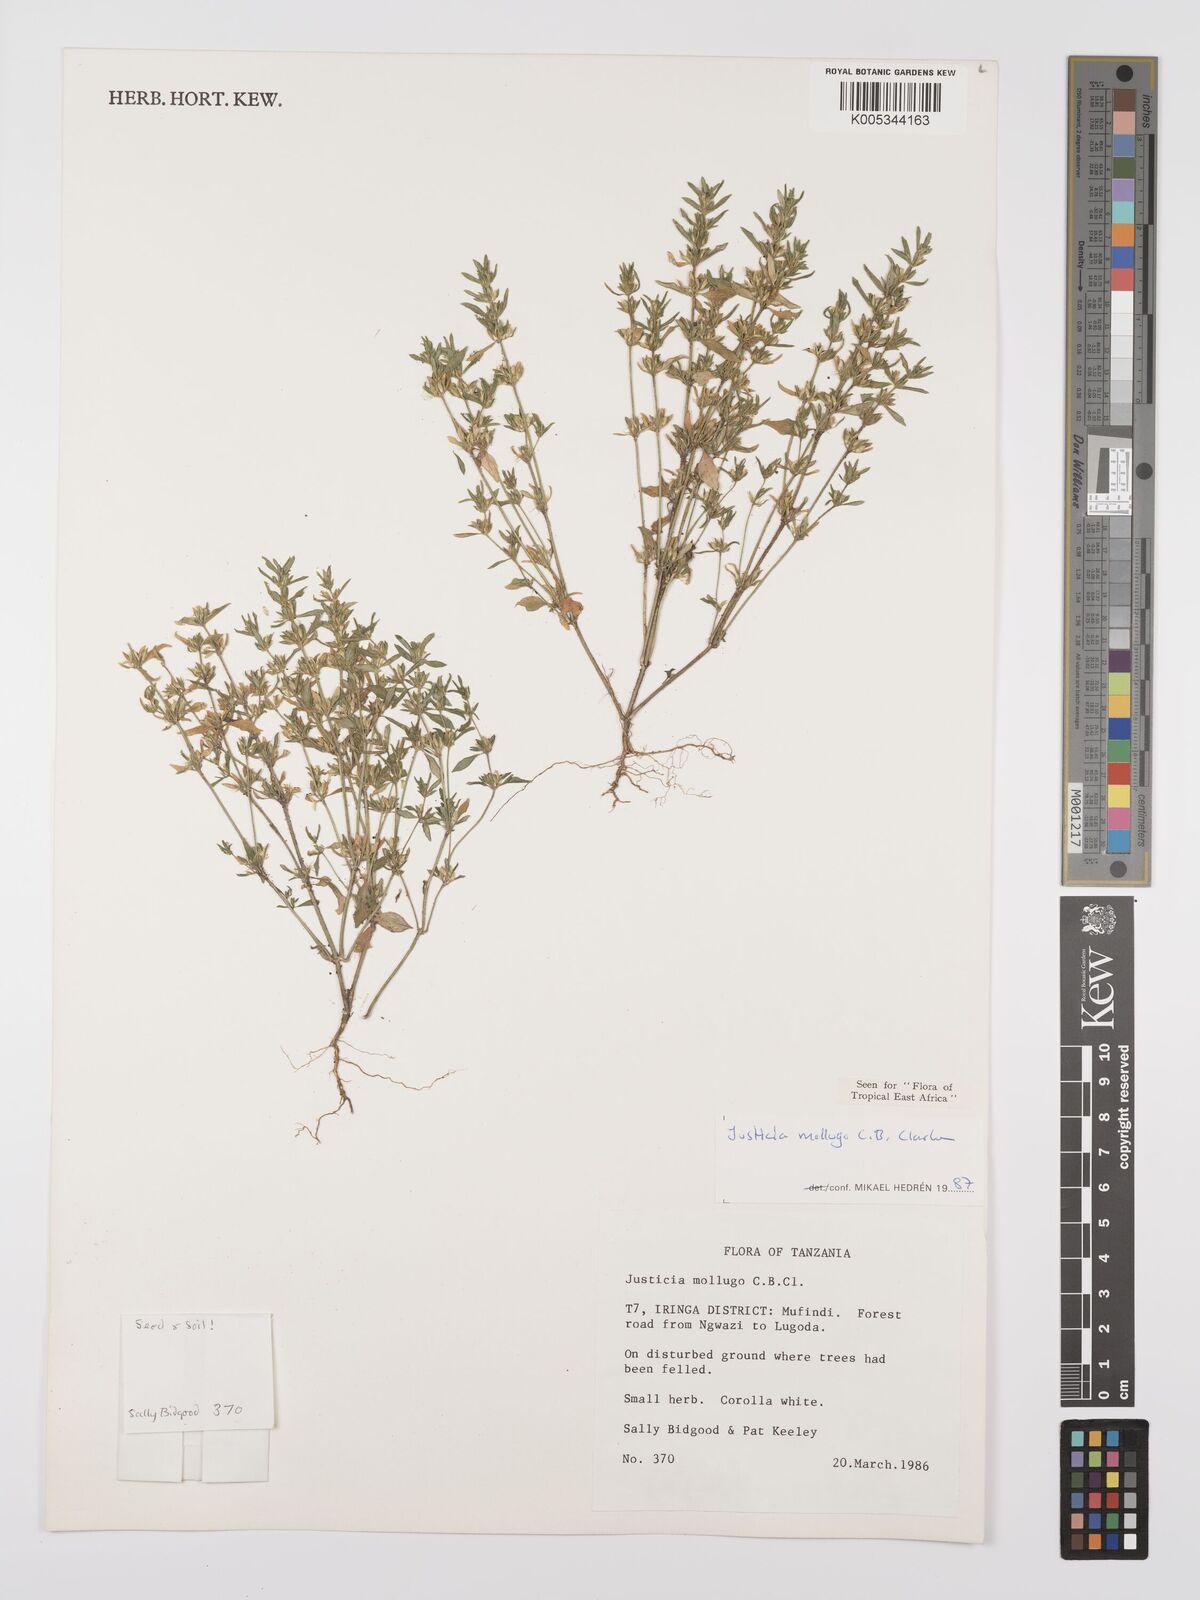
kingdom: Plantae
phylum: Tracheophyta
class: Magnoliopsida
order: Lamiales
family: Acanthaceae
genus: Justicia
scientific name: Justicia mollugo
